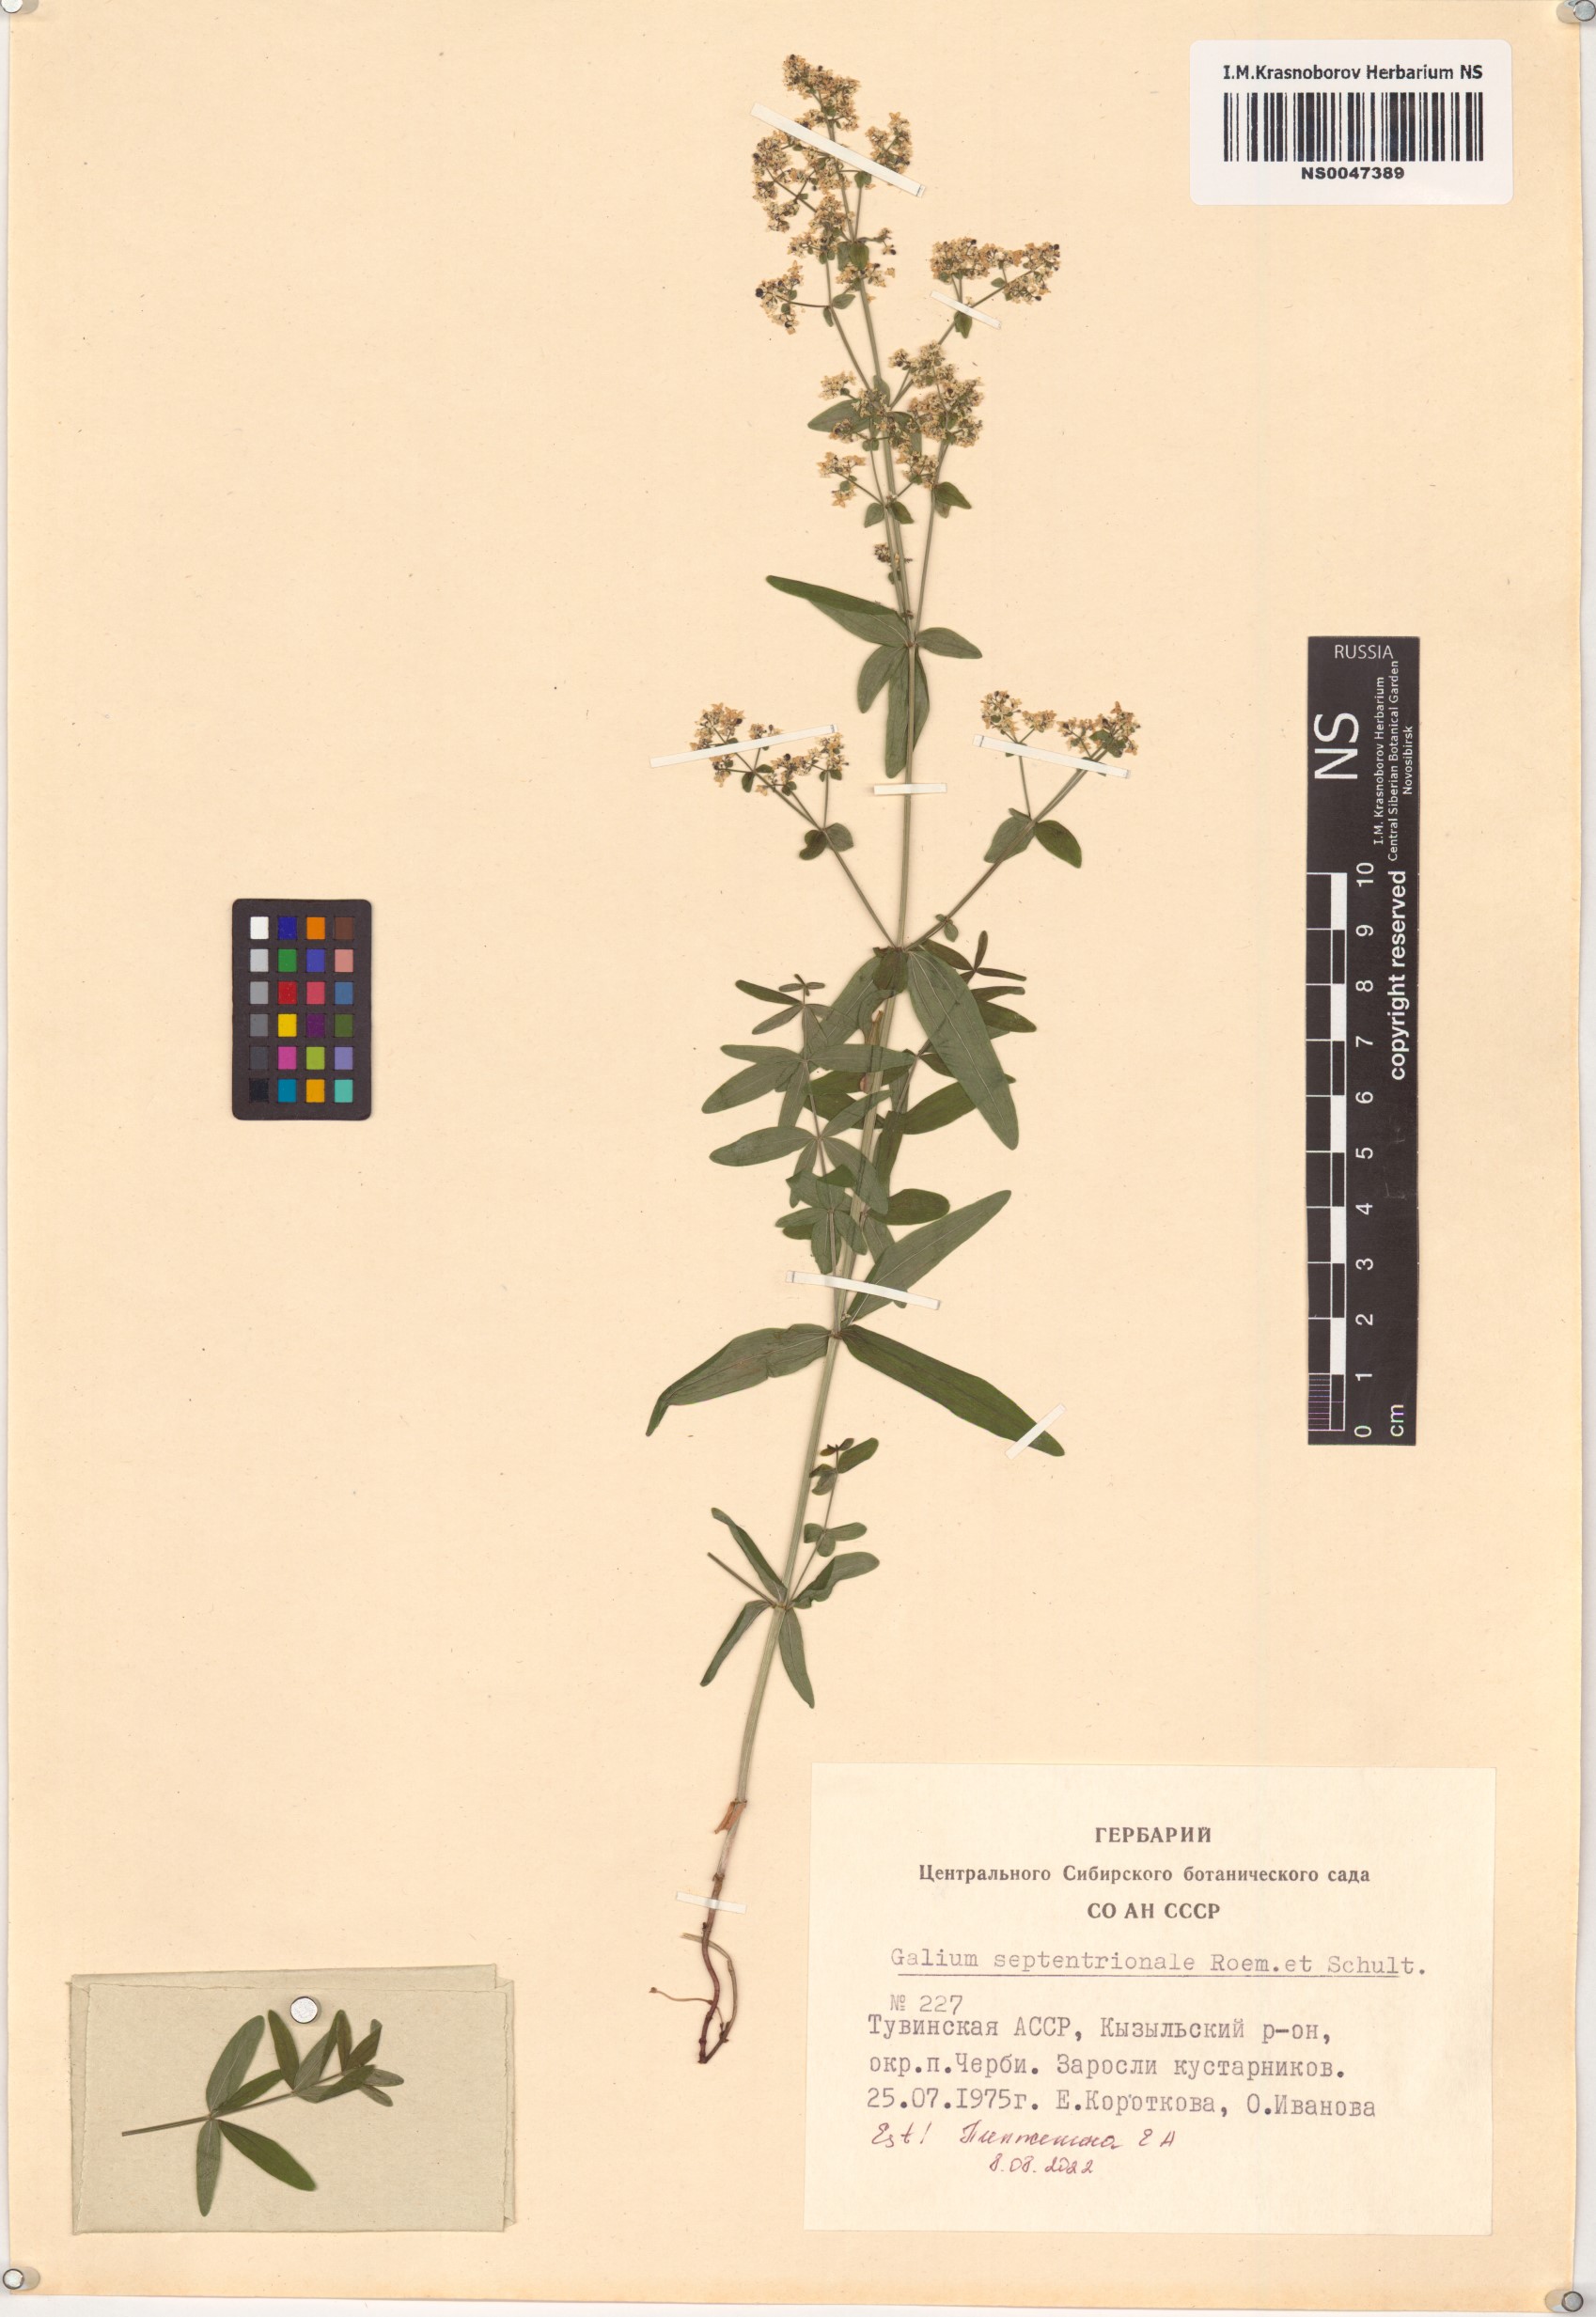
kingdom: Plantae
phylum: Tracheophyta
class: Magnoliopsida
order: Gentianales
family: Rubiaceae
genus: Galium
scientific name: Galium boreale
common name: Northern bedstraw
